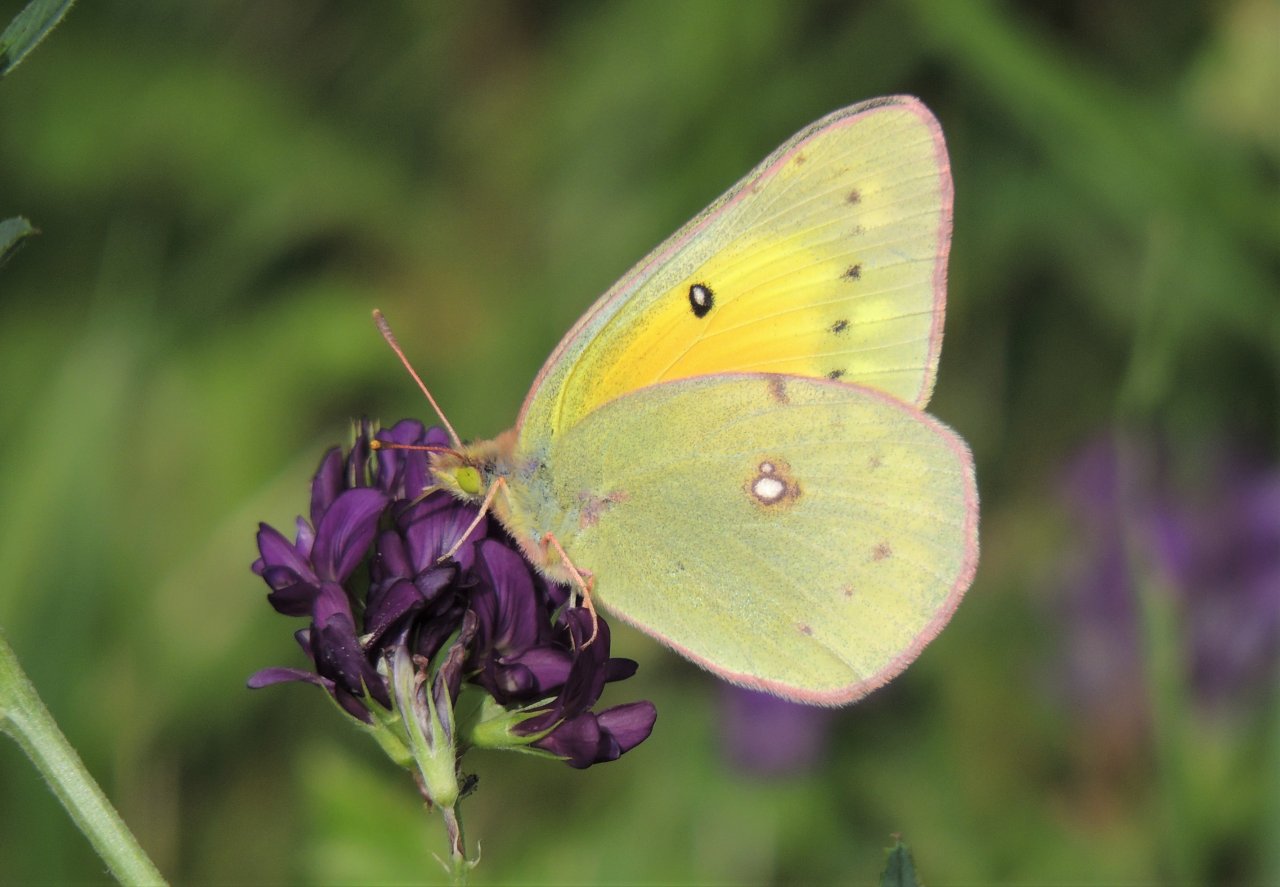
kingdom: Animalia
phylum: Arthropoda
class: Insecta
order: Lepidoptera
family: Pieridae
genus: Colias
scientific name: Colias eurytheme
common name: Orange Sulphur
